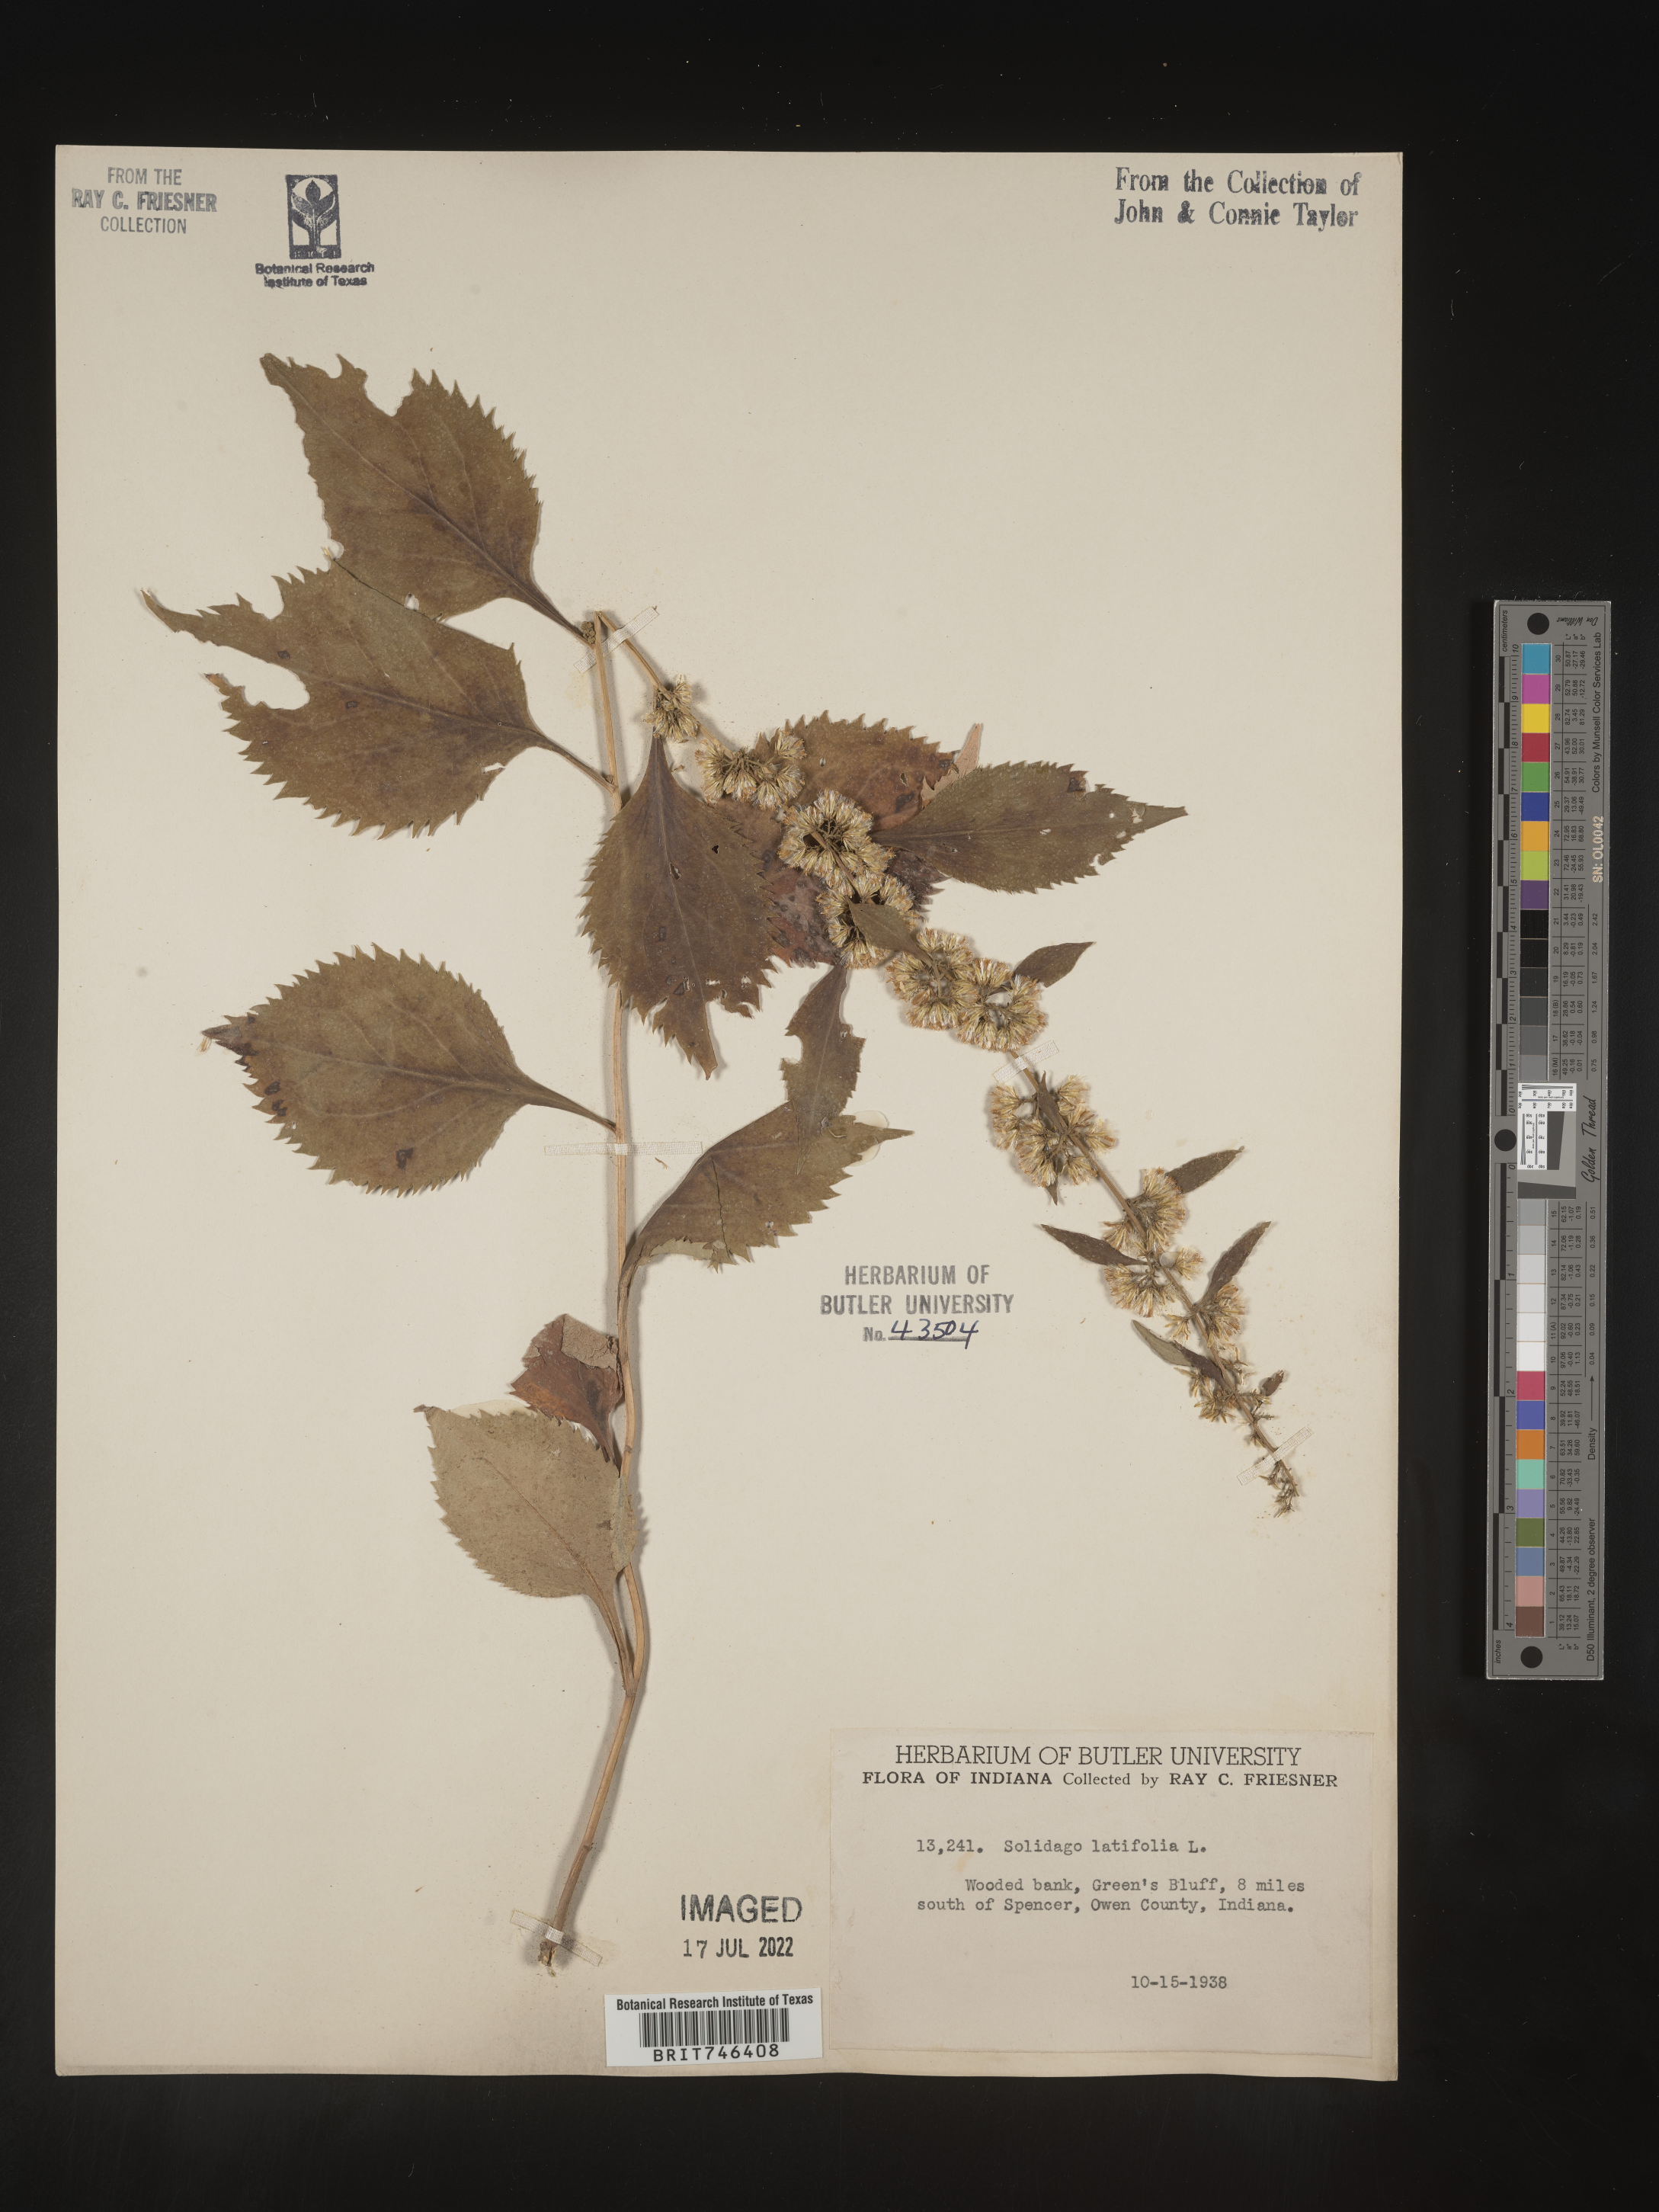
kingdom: Plantae
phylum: Tracheophyta
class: Magnoliopsida
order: Asterales
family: Asteraceae
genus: Solidago
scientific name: Solidago flexicaulis
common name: Zig-zag goldenrod
